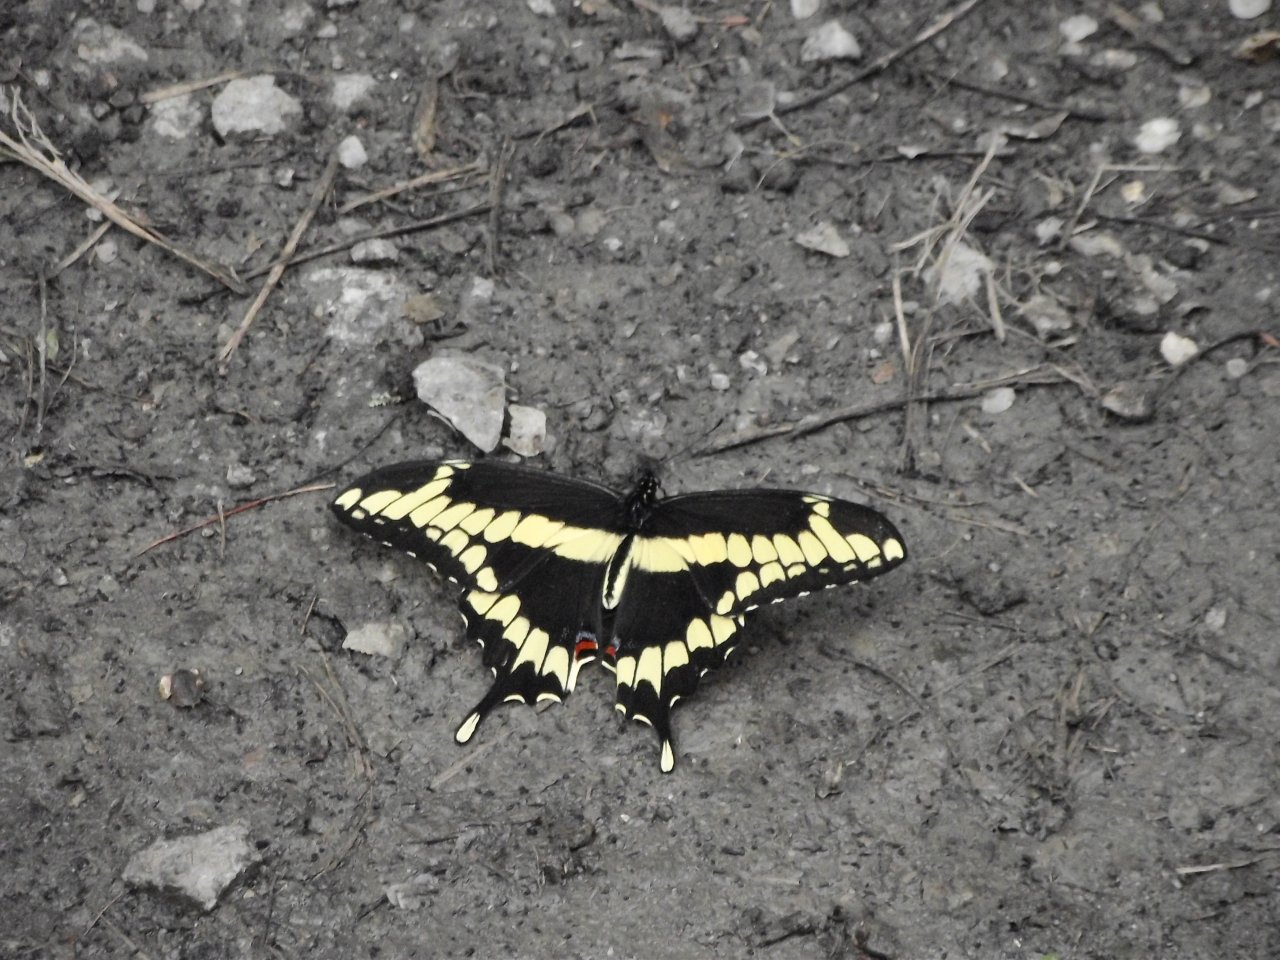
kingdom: Animalia
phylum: Arthropoda
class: Insecta
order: Lepidoptera
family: Papilionidae
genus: Papilio
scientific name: Papilio cresphontes
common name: Eastern Giant Swallowtail
